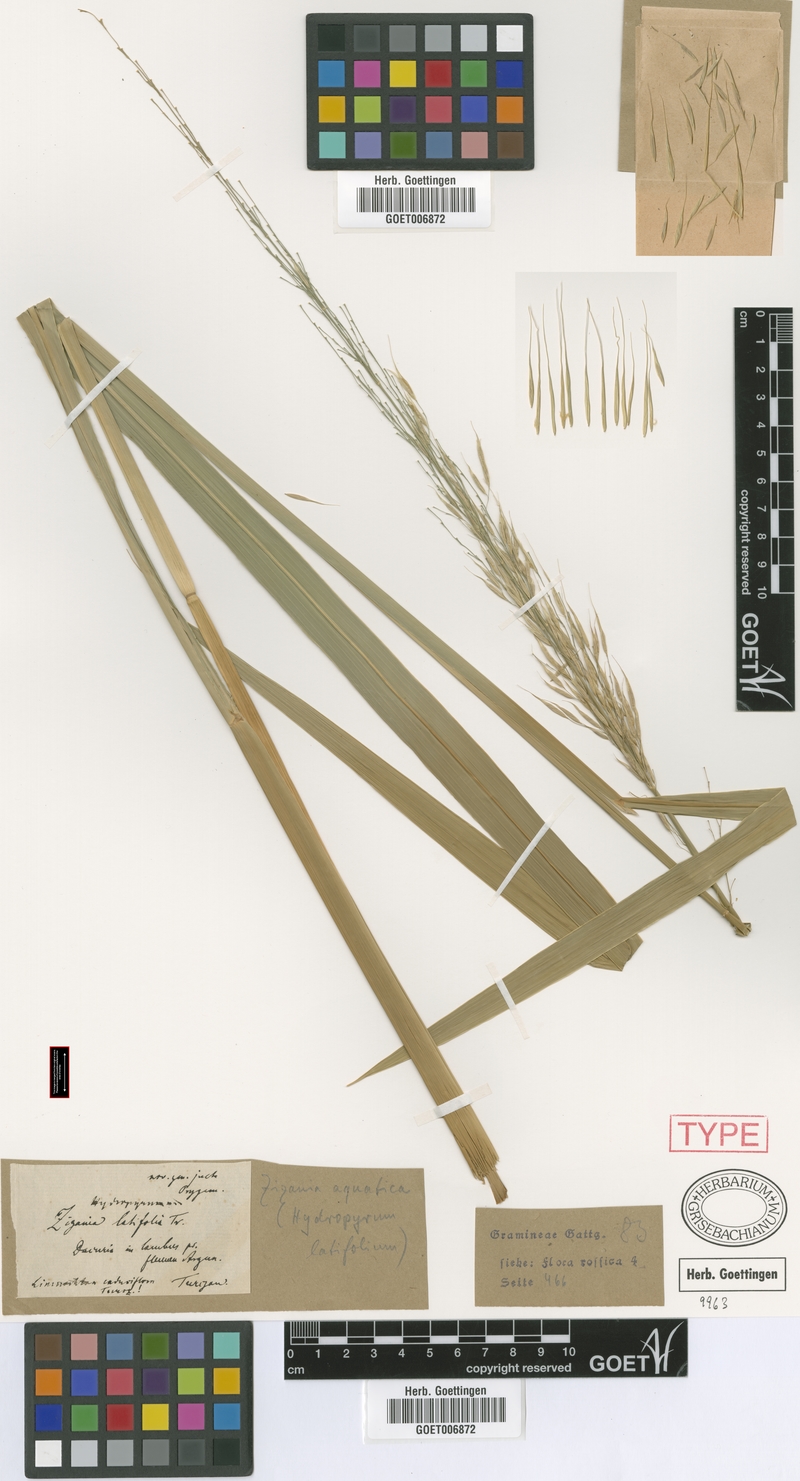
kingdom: Plantae
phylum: Tracheophyta
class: Liliopsida
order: Poales
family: Poaceae
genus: Zizania
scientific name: Zizania latifolia
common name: Manchurian wildrice
